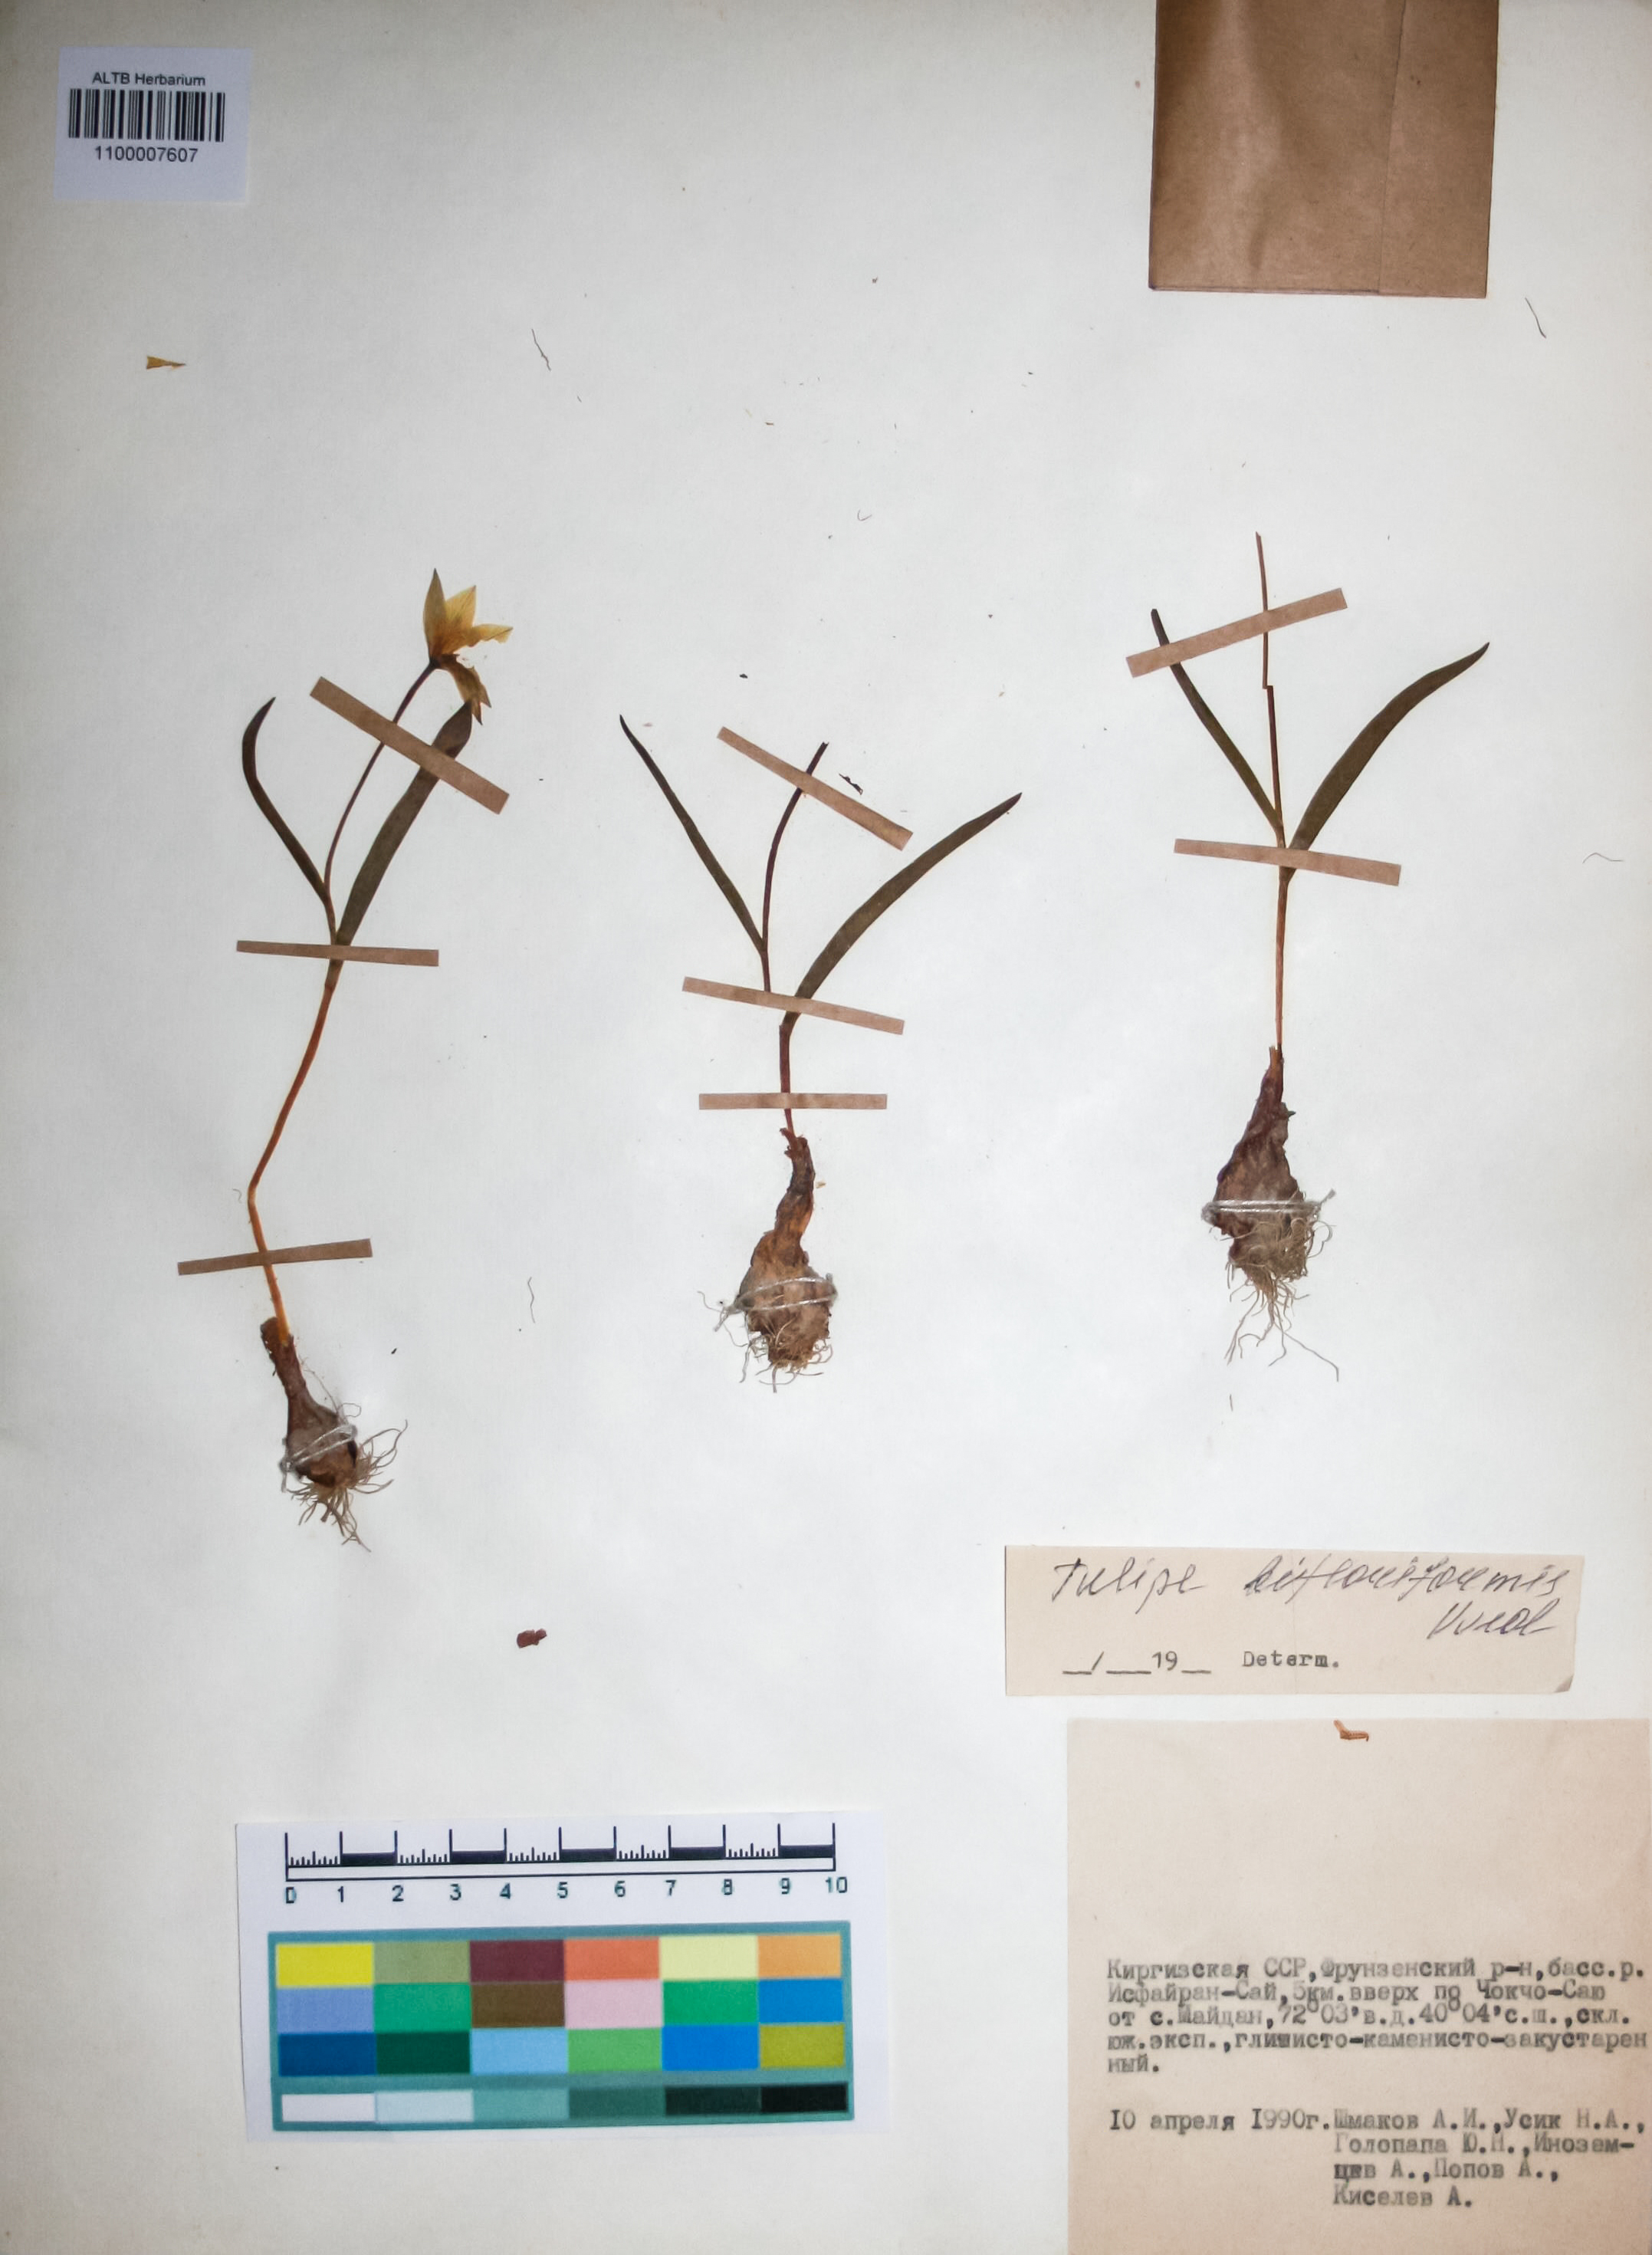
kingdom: Plantae
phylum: Tracheophyta
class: Liliopsida
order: Liliales
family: Liliaceae
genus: Tulipa
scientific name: Tulipa bifloriformis
